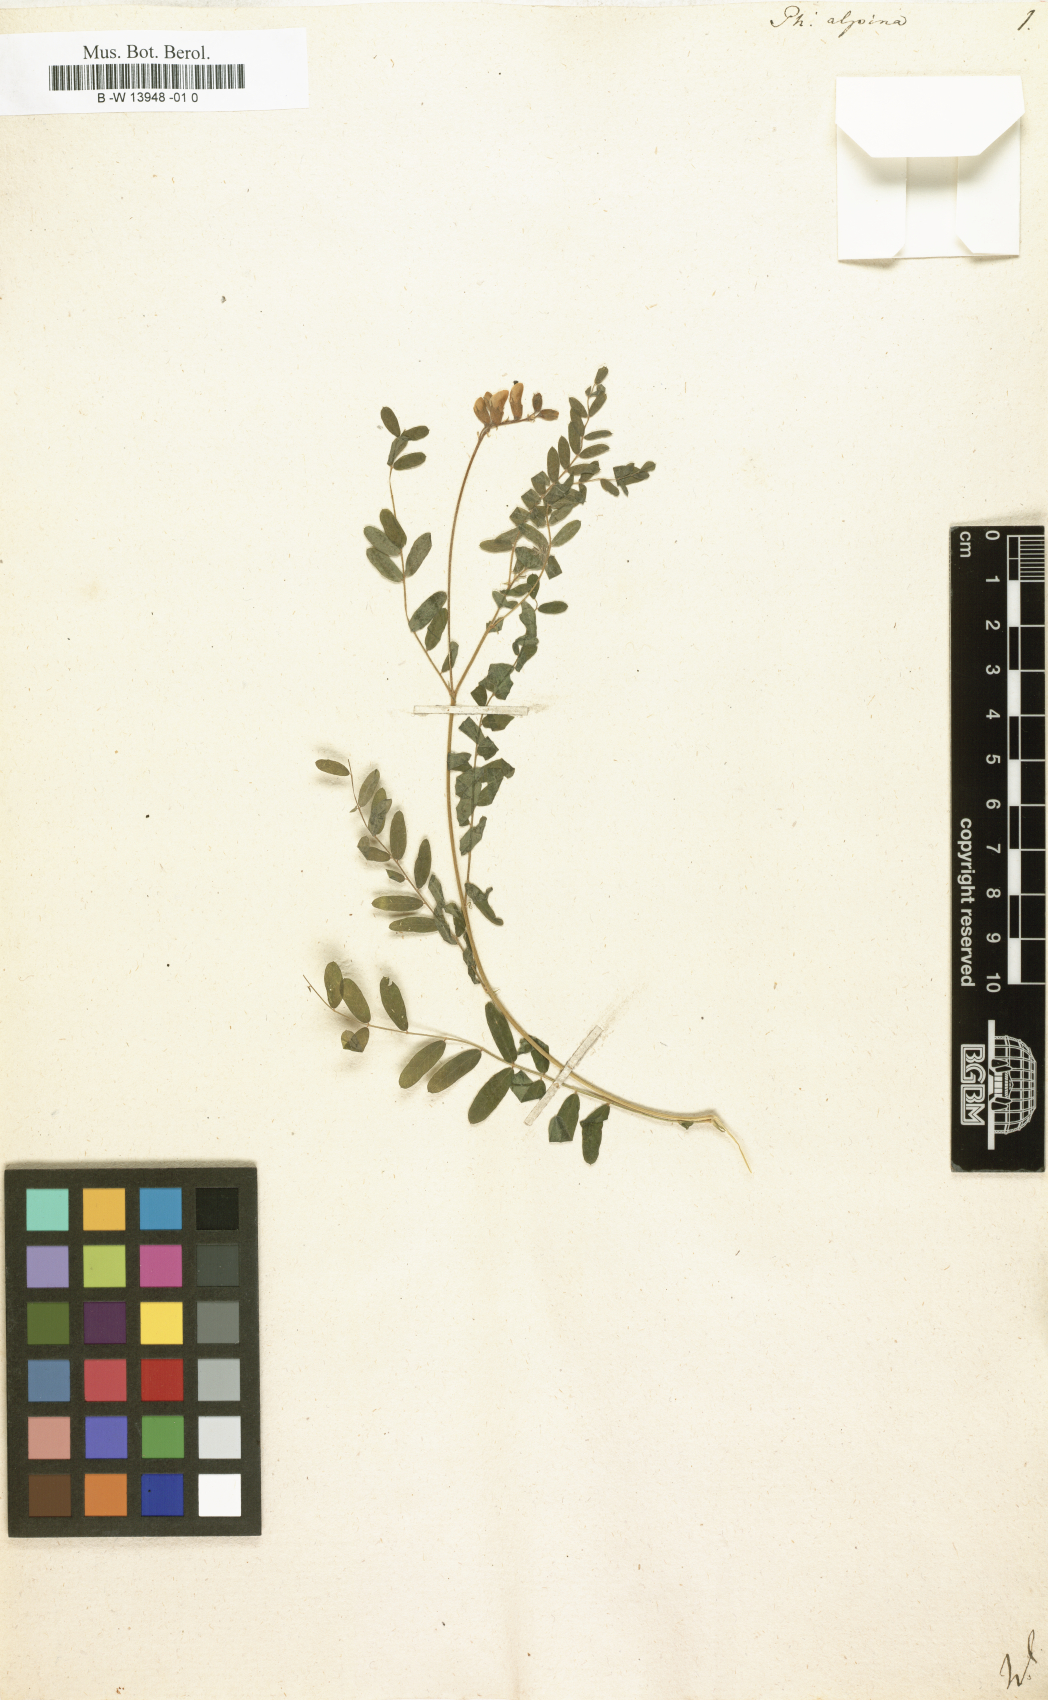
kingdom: Plantae
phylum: Tracheophyta
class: Magnoliopsida
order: Fabales
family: Fabaceae
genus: Astragalus
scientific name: Astragalus penduliflorus
